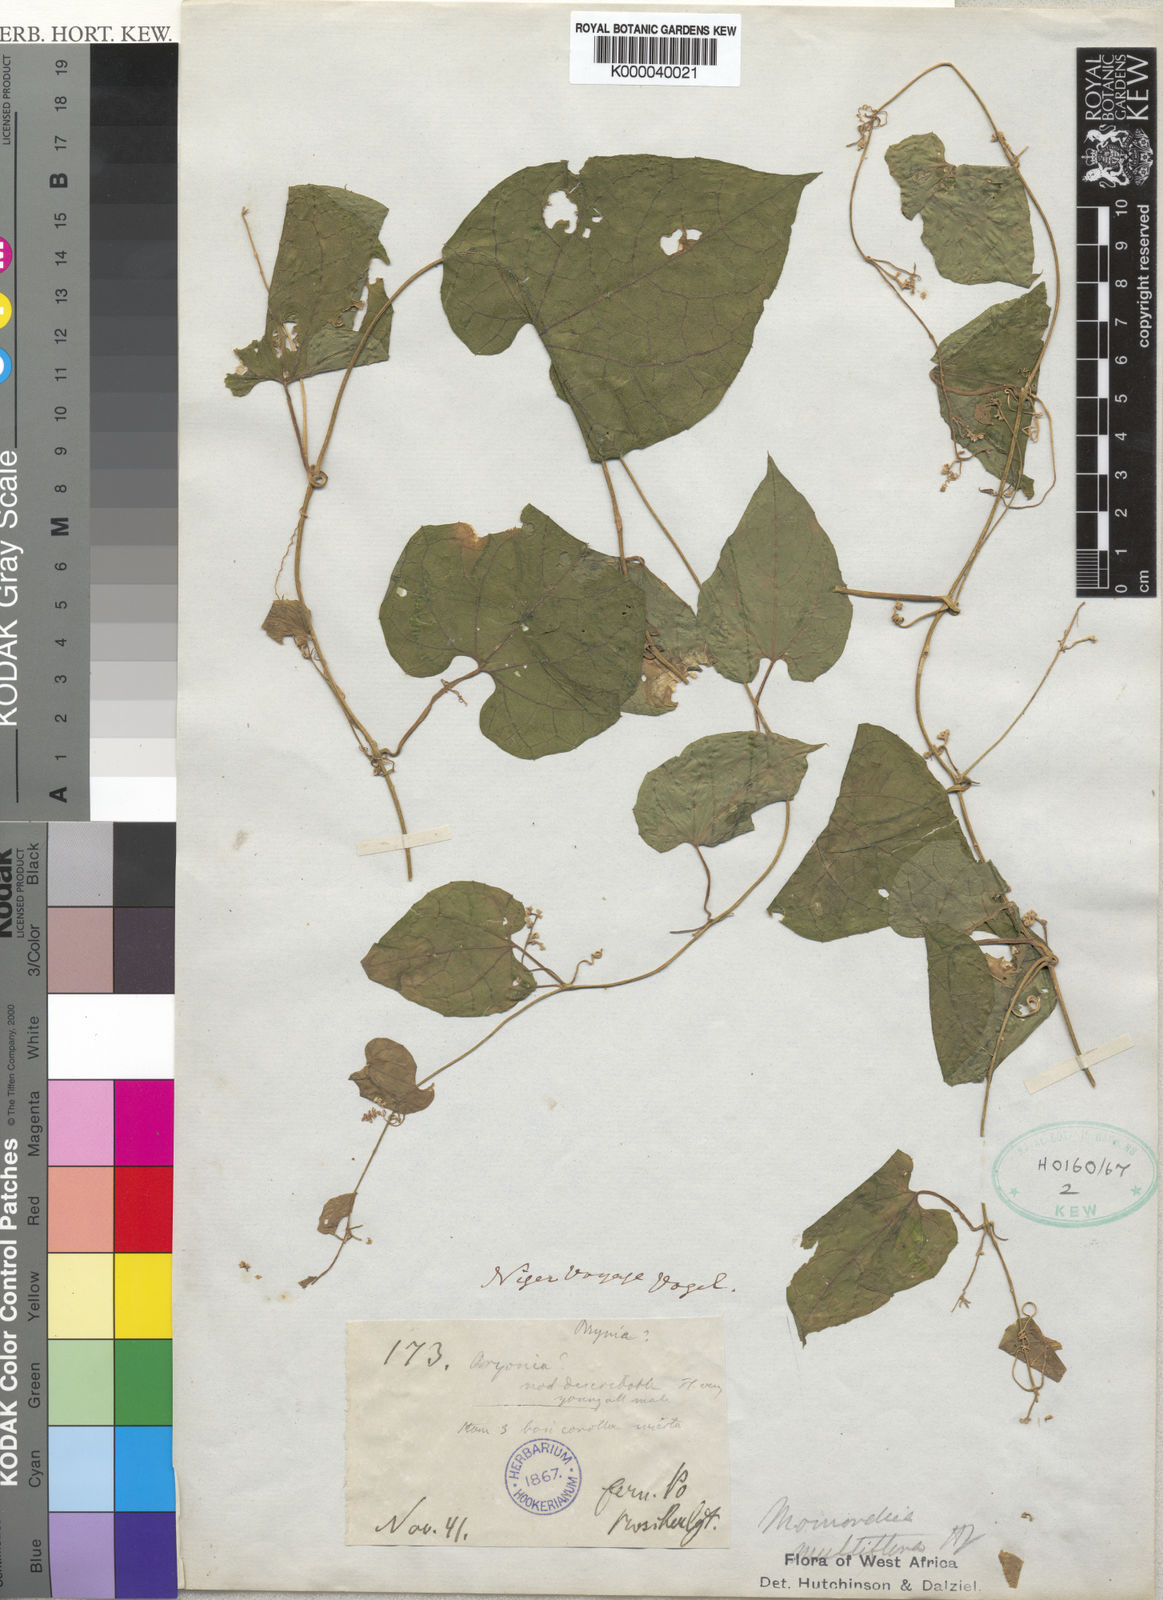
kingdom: Plantae
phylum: Tracheophyta
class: Magnoliopsida
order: Cucurbitales
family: Cucurbitaceae
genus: Momordica
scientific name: Momordica multiflora
